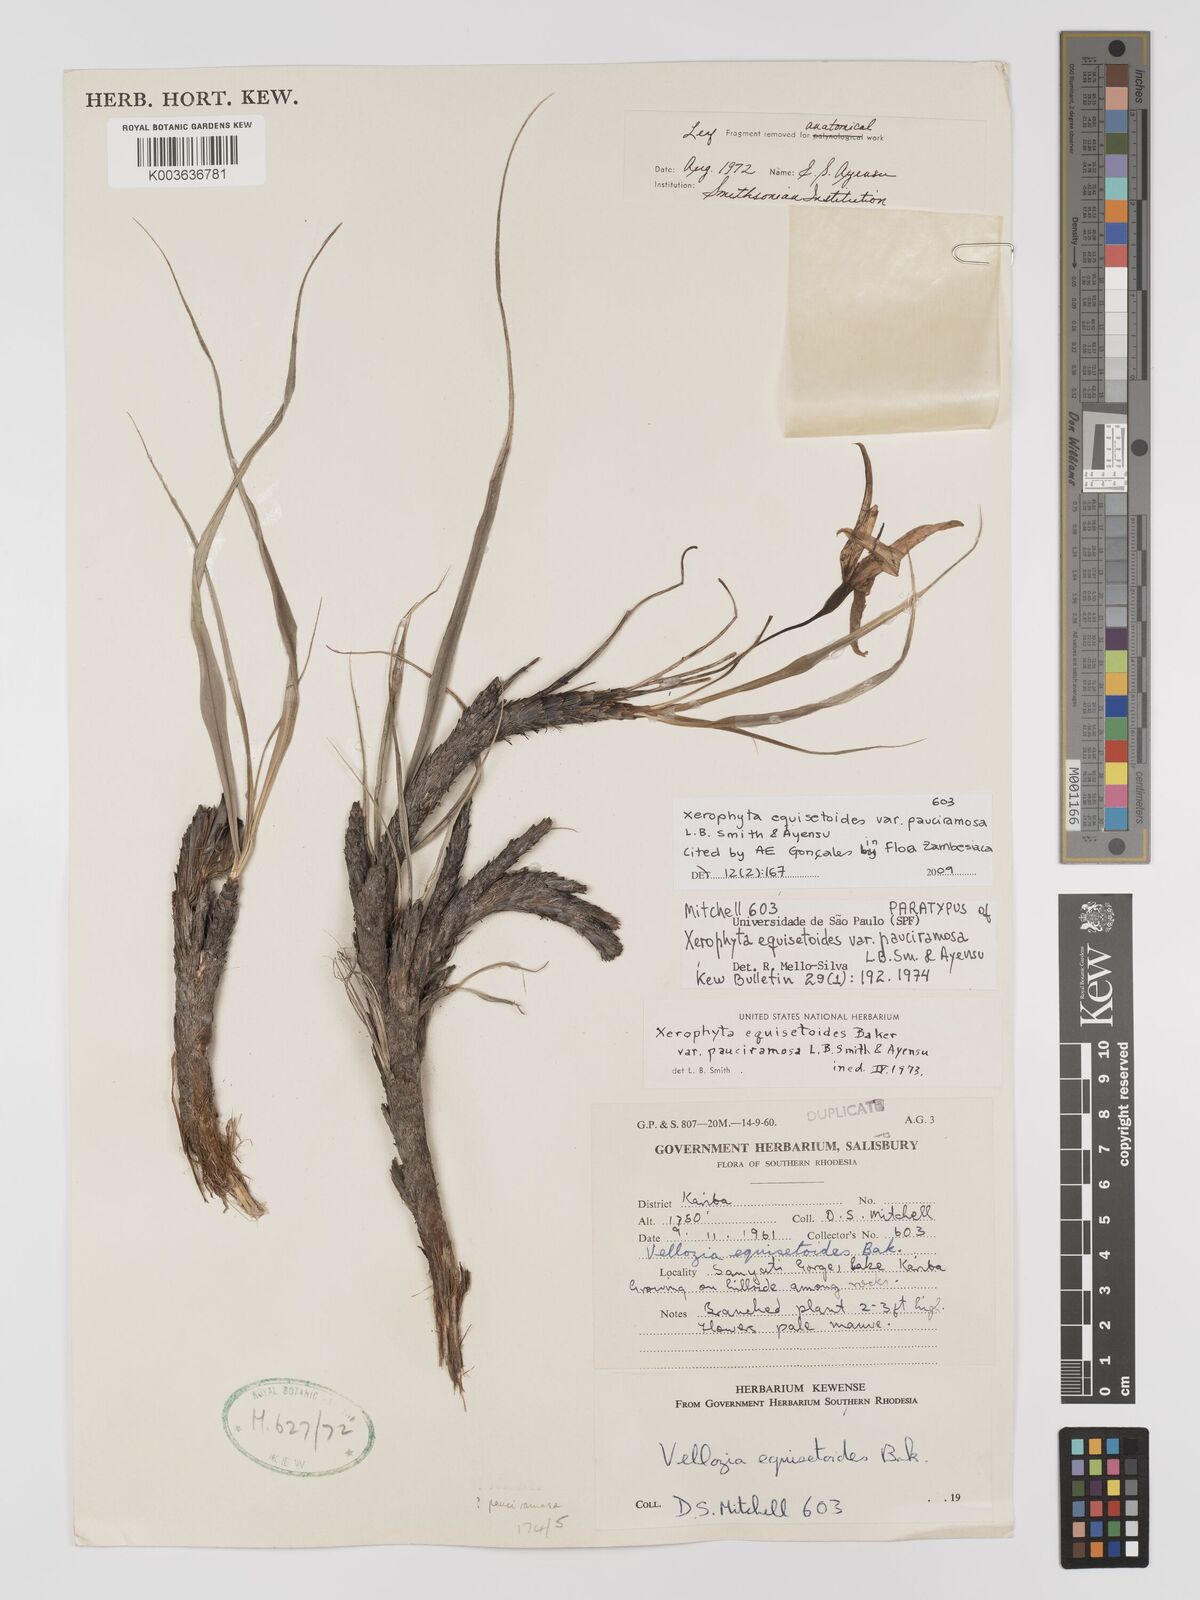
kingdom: Plantae
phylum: Tracheophyta
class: Liliopsida
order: Pandanales
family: Velloziaceae
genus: Xerophyta
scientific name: Xerophyta pauciramosa
